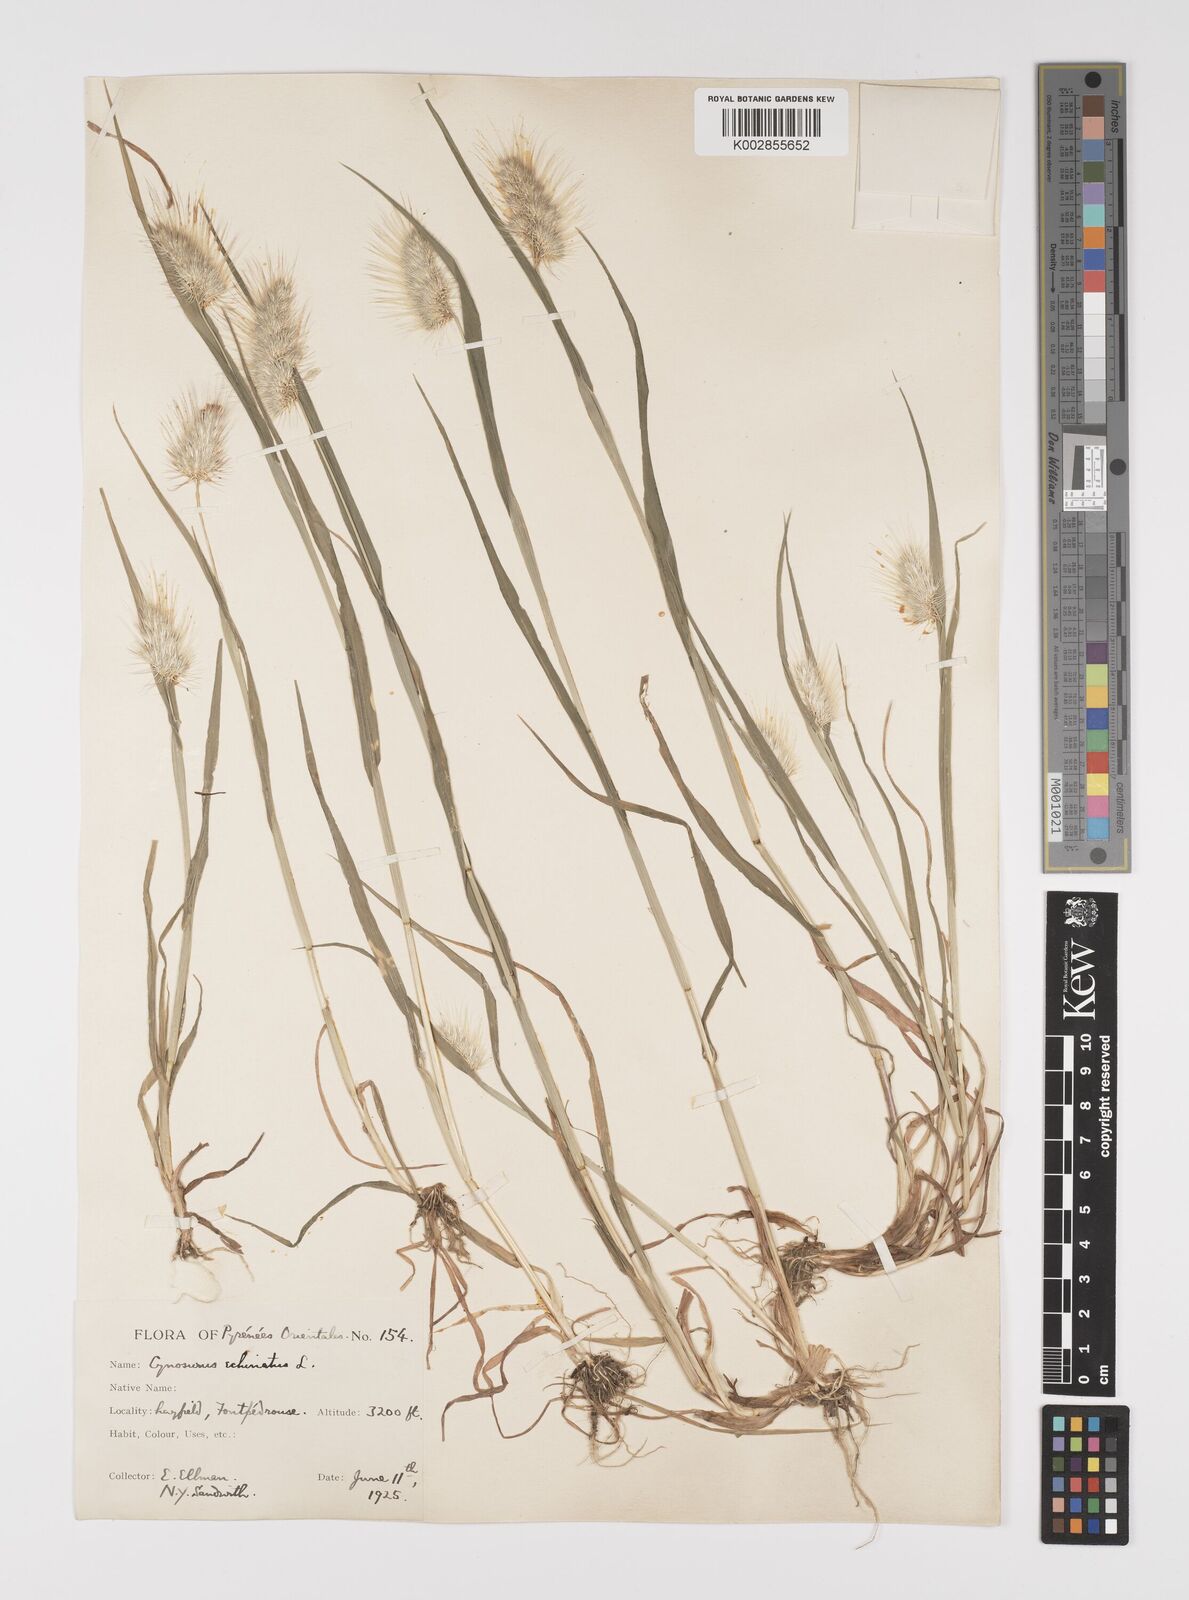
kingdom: Plantae
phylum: Tracheophyta
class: Liliopsida
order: Poales
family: Poaceae
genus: Cynosurus
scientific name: Cynosurus echinatus
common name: Rough dog's-tail
